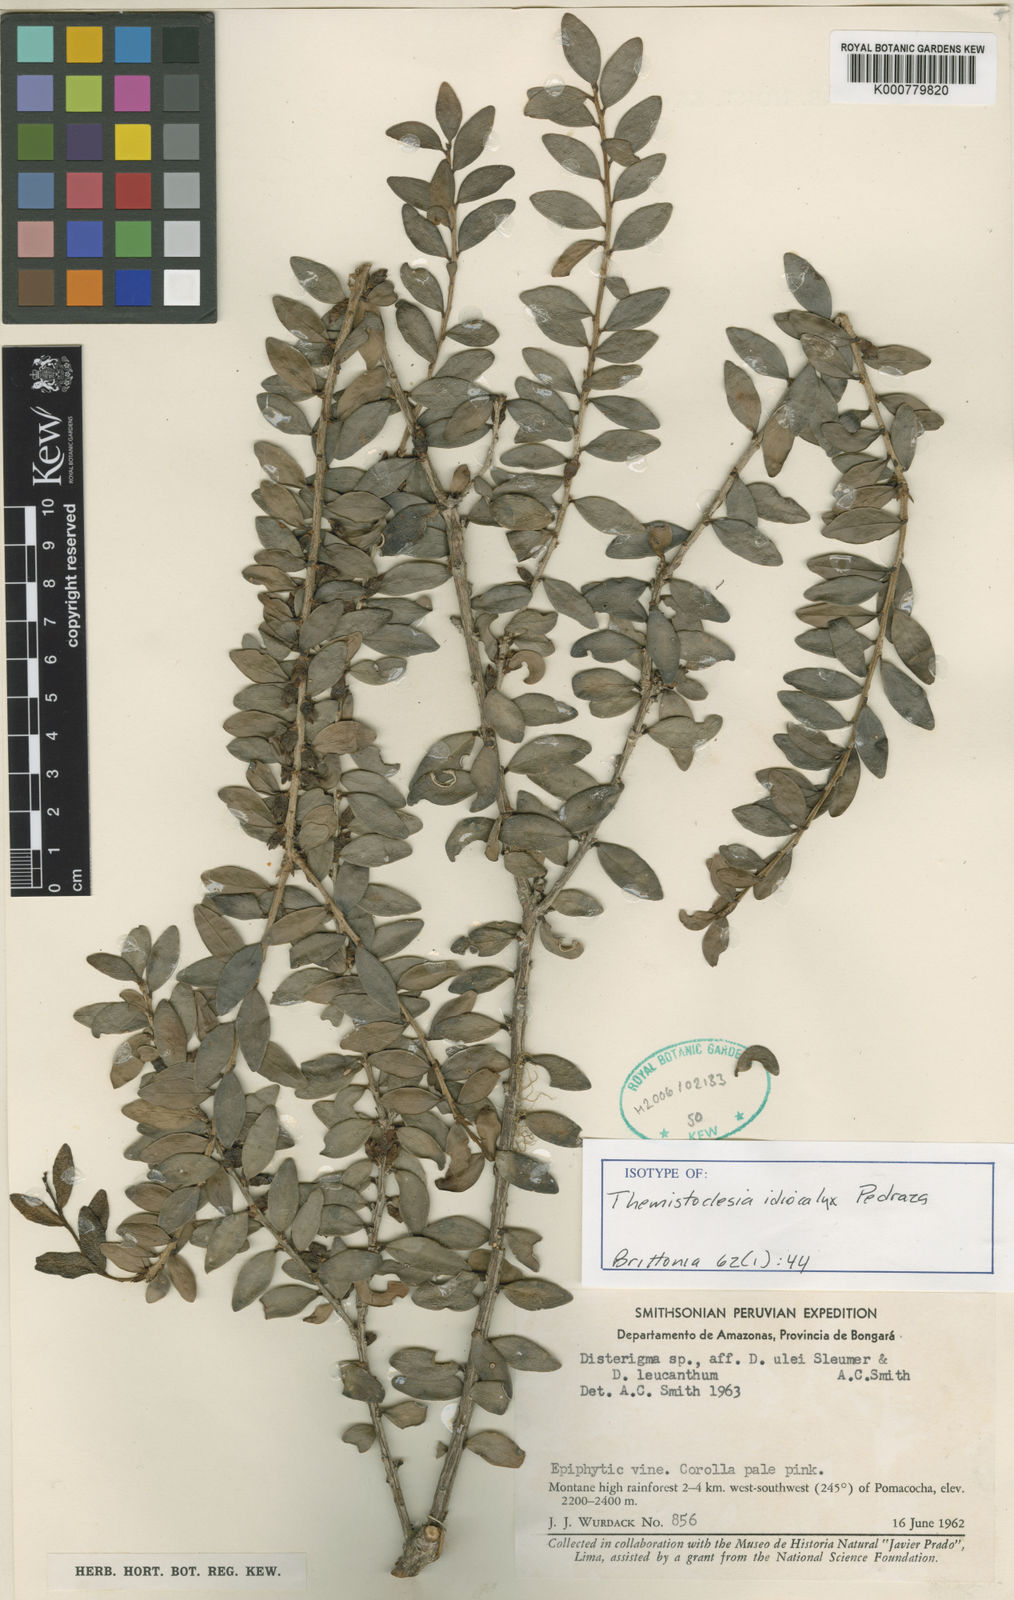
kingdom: Plantae
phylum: Tracheophyta
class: Magnoliopsida
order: Ericales
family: Ericaceae
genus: Themistoclesia
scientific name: Themistoclesia idiocalyx
